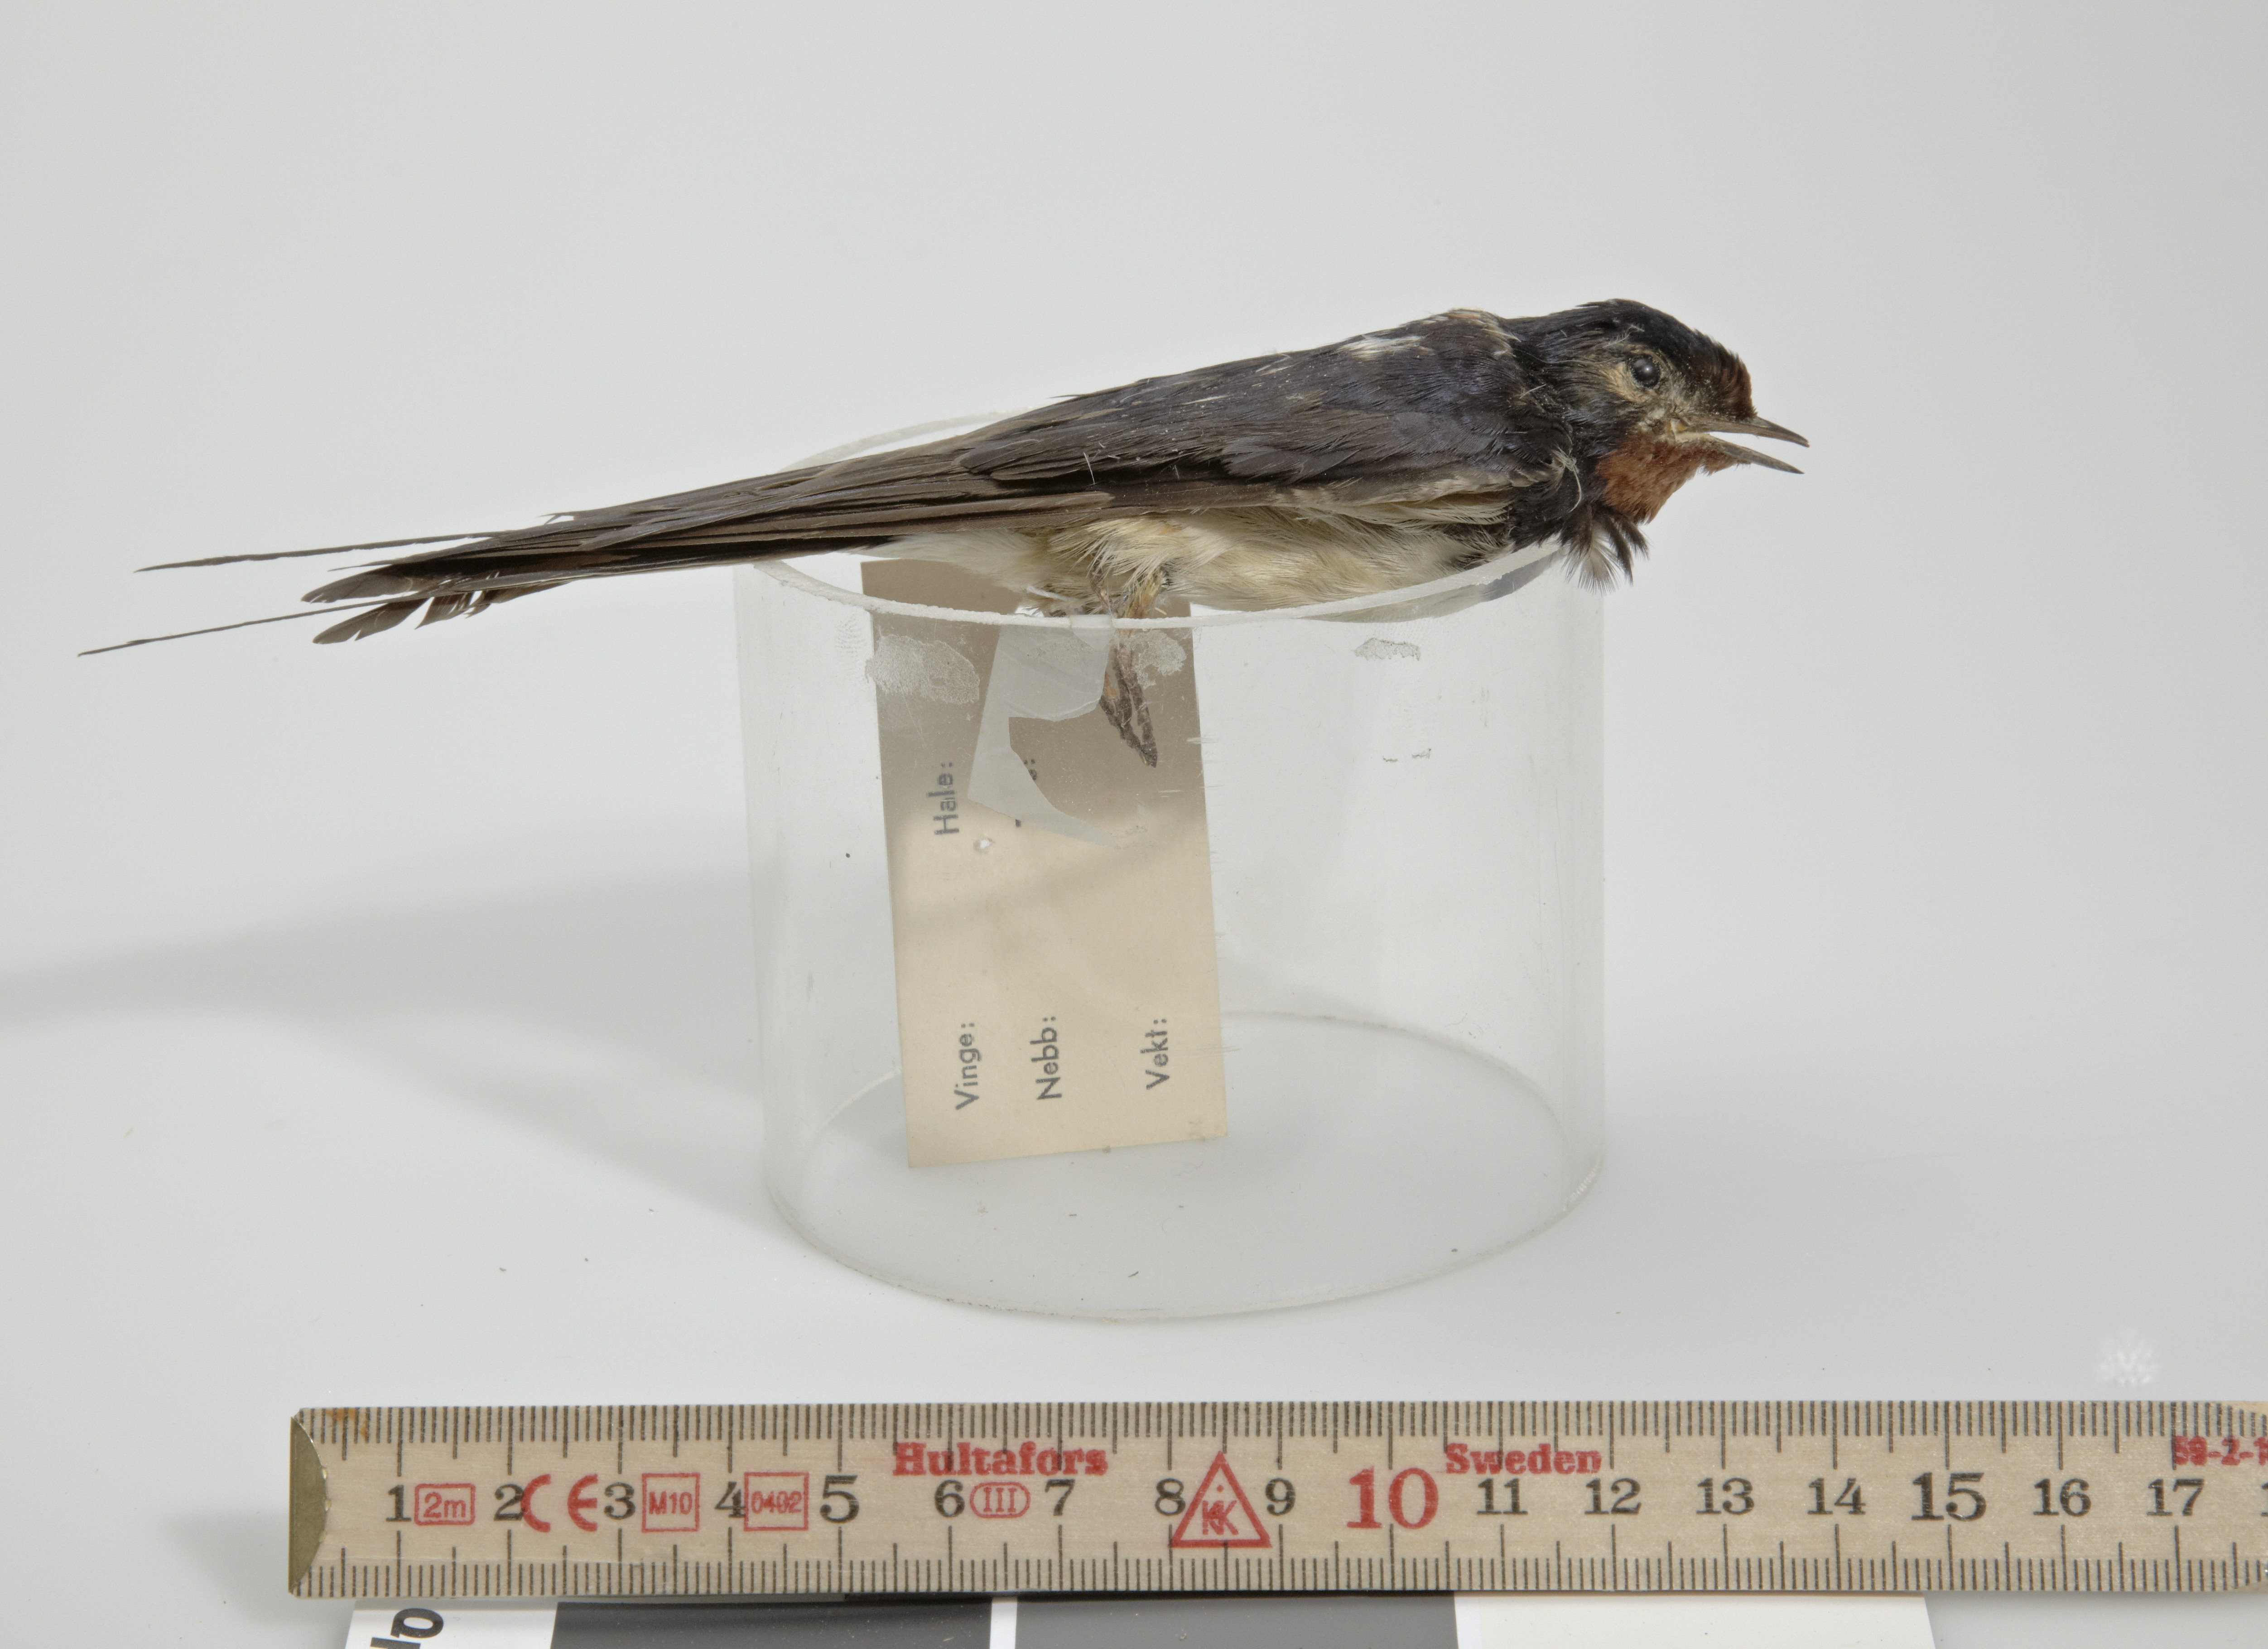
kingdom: Animalia
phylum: Chordata
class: Aves
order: Passeriformes
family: Hirundinidae
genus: Hirundo
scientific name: Hirundo rustica
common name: Barn swallow
